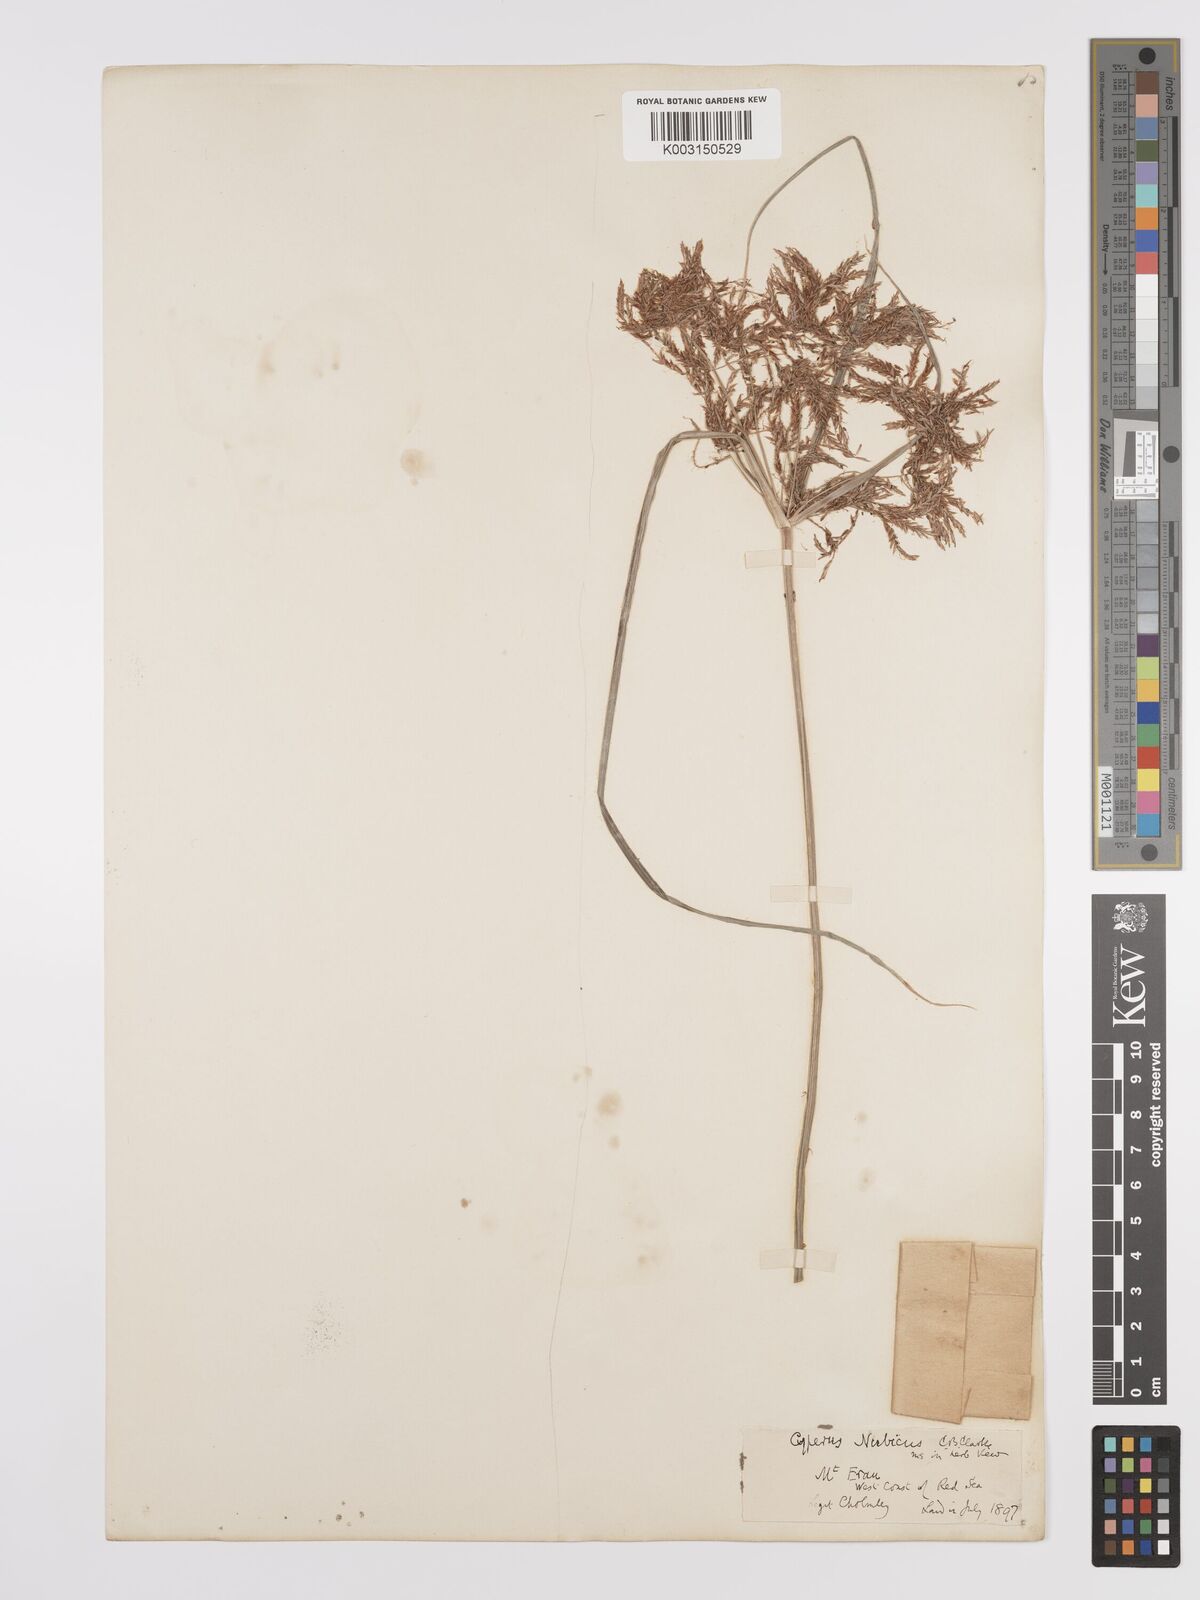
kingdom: Plantae
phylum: Tracheophyta
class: Liliopsida
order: Poales
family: Cyperaceae
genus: Cyperus
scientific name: Cyperus bifax
